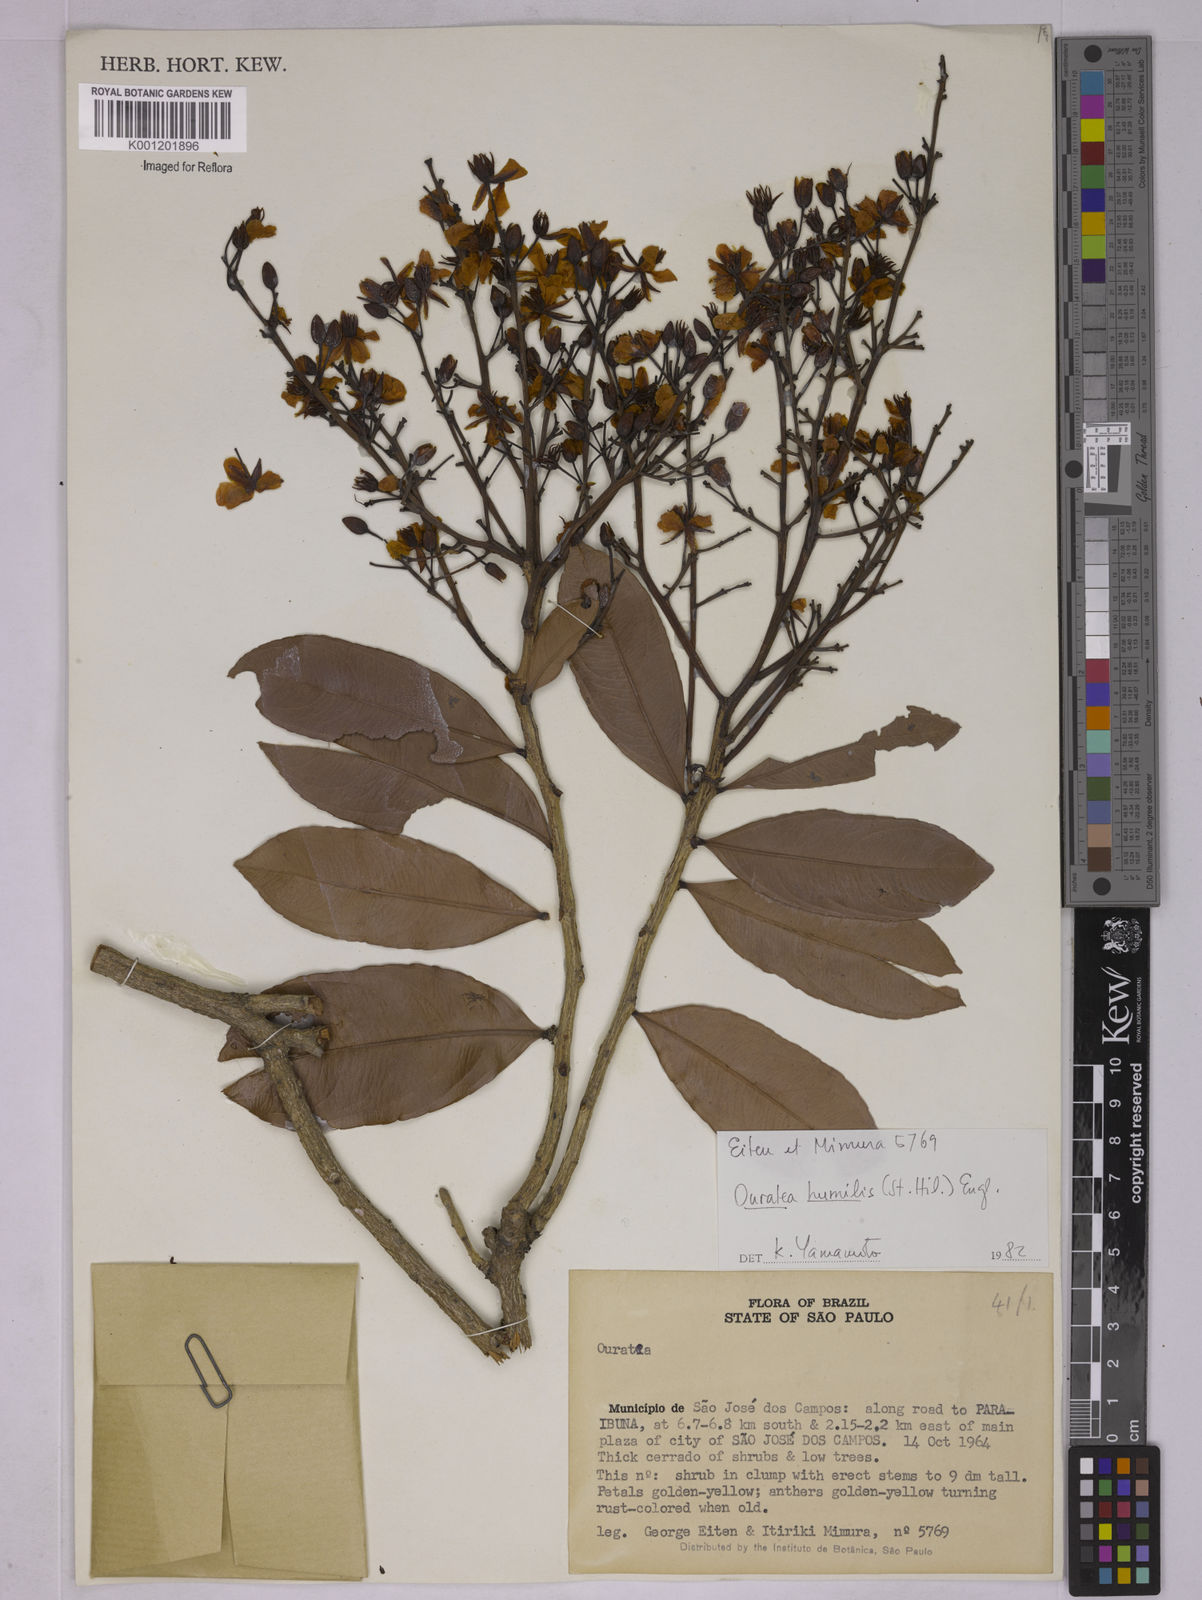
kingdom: Plantae
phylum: Tracheophyta
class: Magnoliopsida
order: Malpighiales
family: Ochnaceae
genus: Ouratea
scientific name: Ouratea humilis
